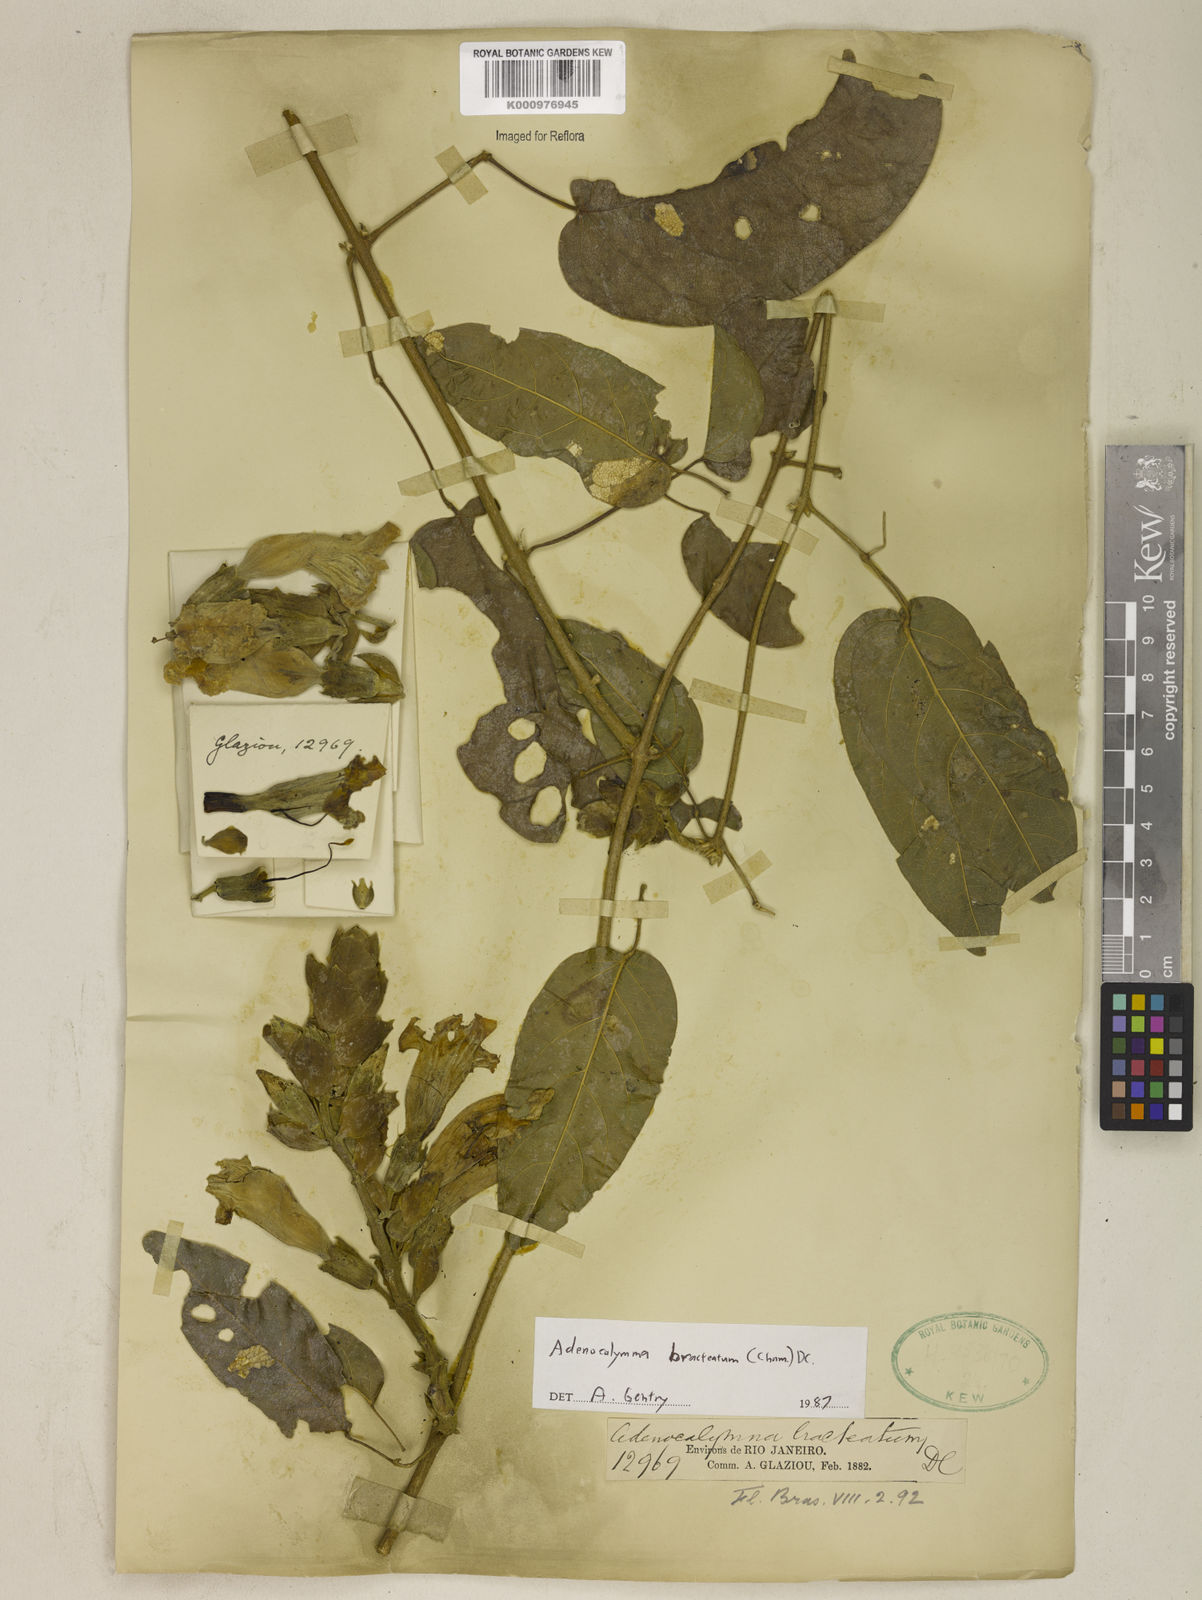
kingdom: Plantae
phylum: Tracheophyta
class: Magnoliopsida
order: Lamiales
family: Bignoniaceae
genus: Adenocalymma
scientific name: Adenocalymma bracteatum
